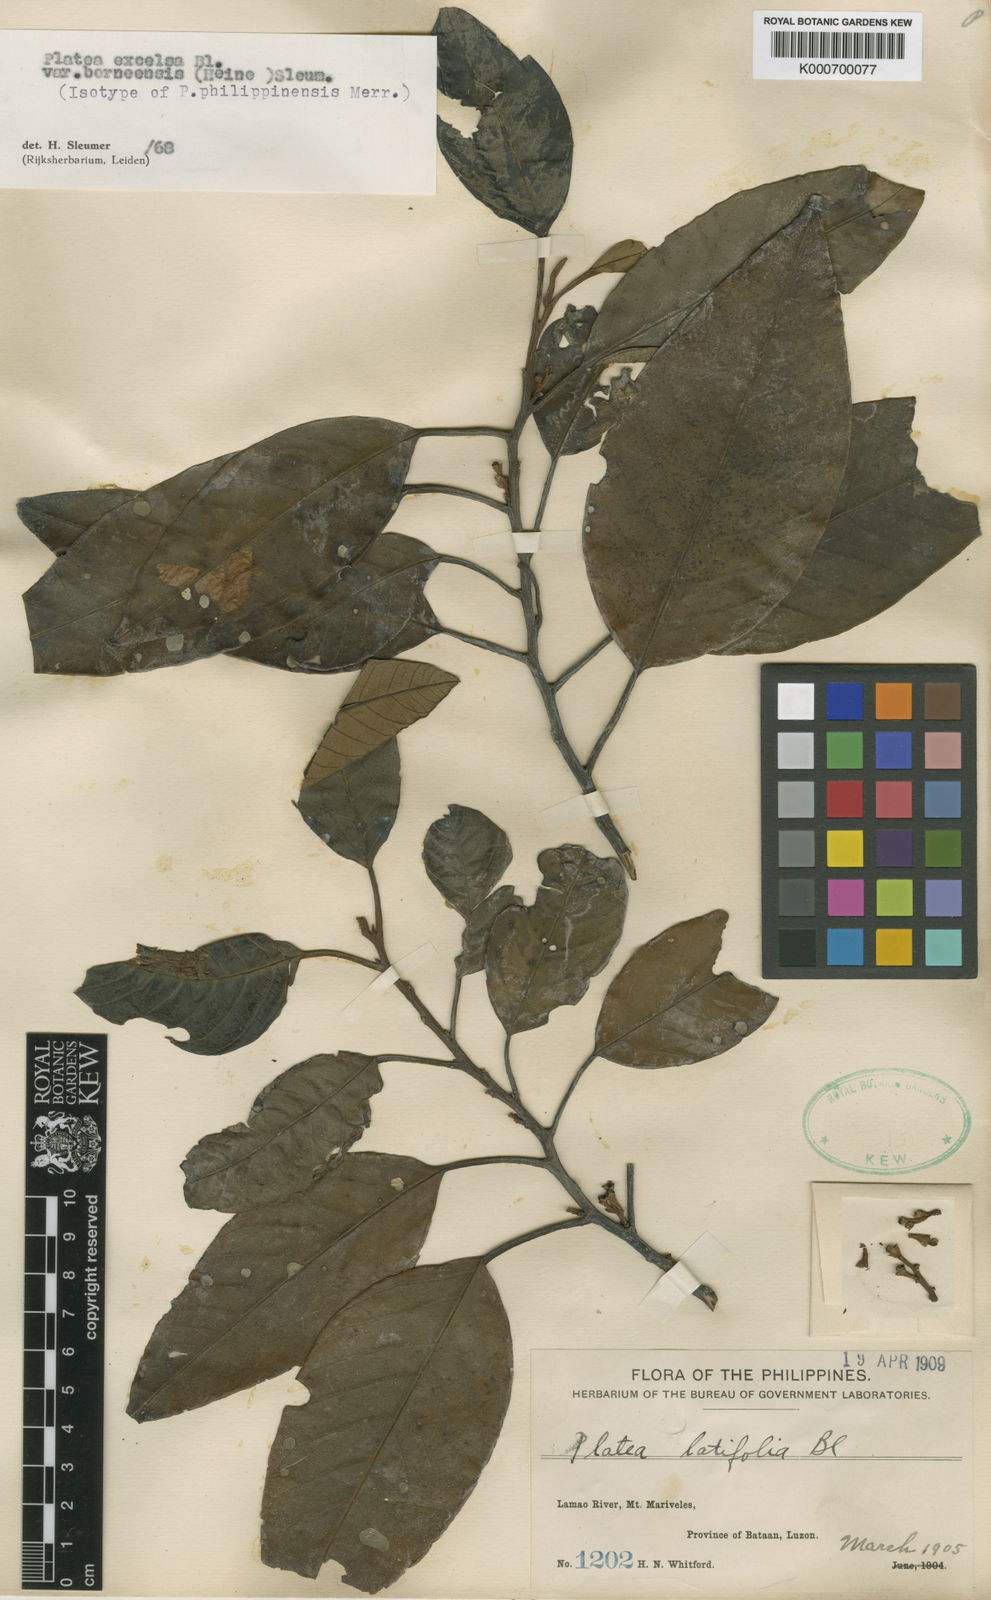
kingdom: Plantae
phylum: Tracheophyta
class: Magnoliopsida
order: Metteniusales
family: Metteniusaceae
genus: Platea
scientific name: Platea excelsa
